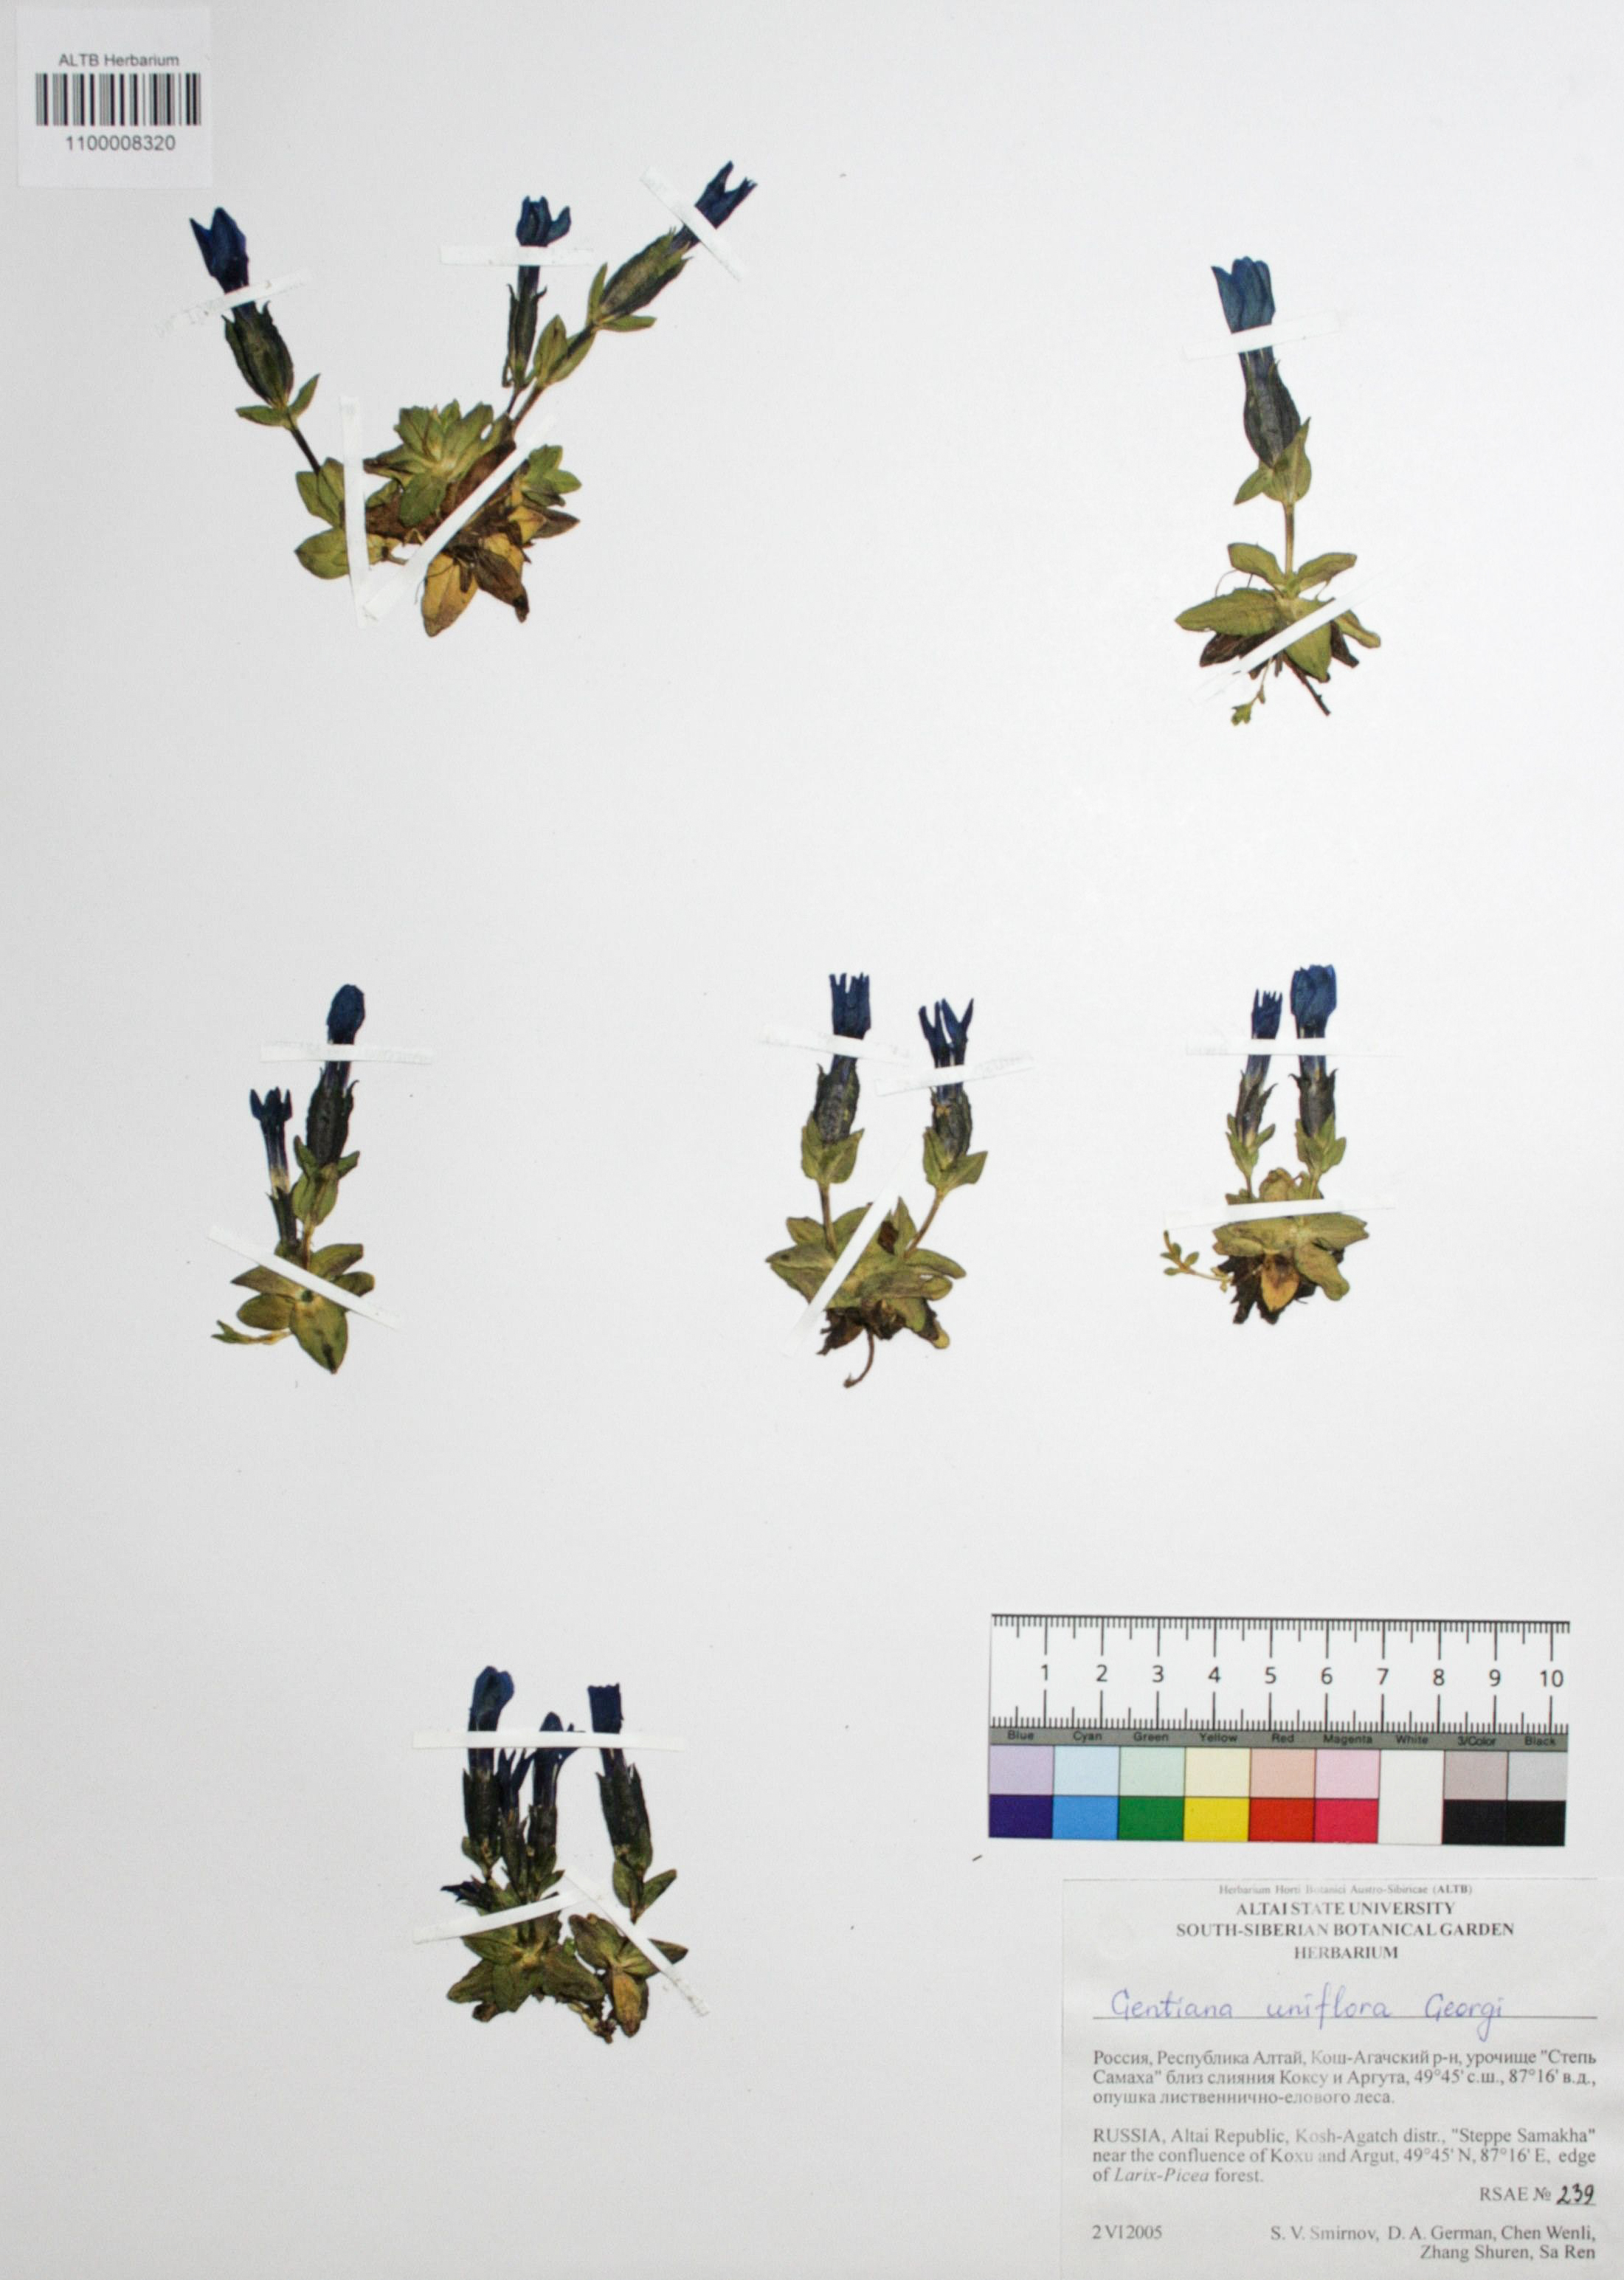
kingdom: Plantae
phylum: Tracheophyta
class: Magnoliopsida
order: Gentianales
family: Gentianaceae
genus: Gentiana
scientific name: Gentiana uniflora
